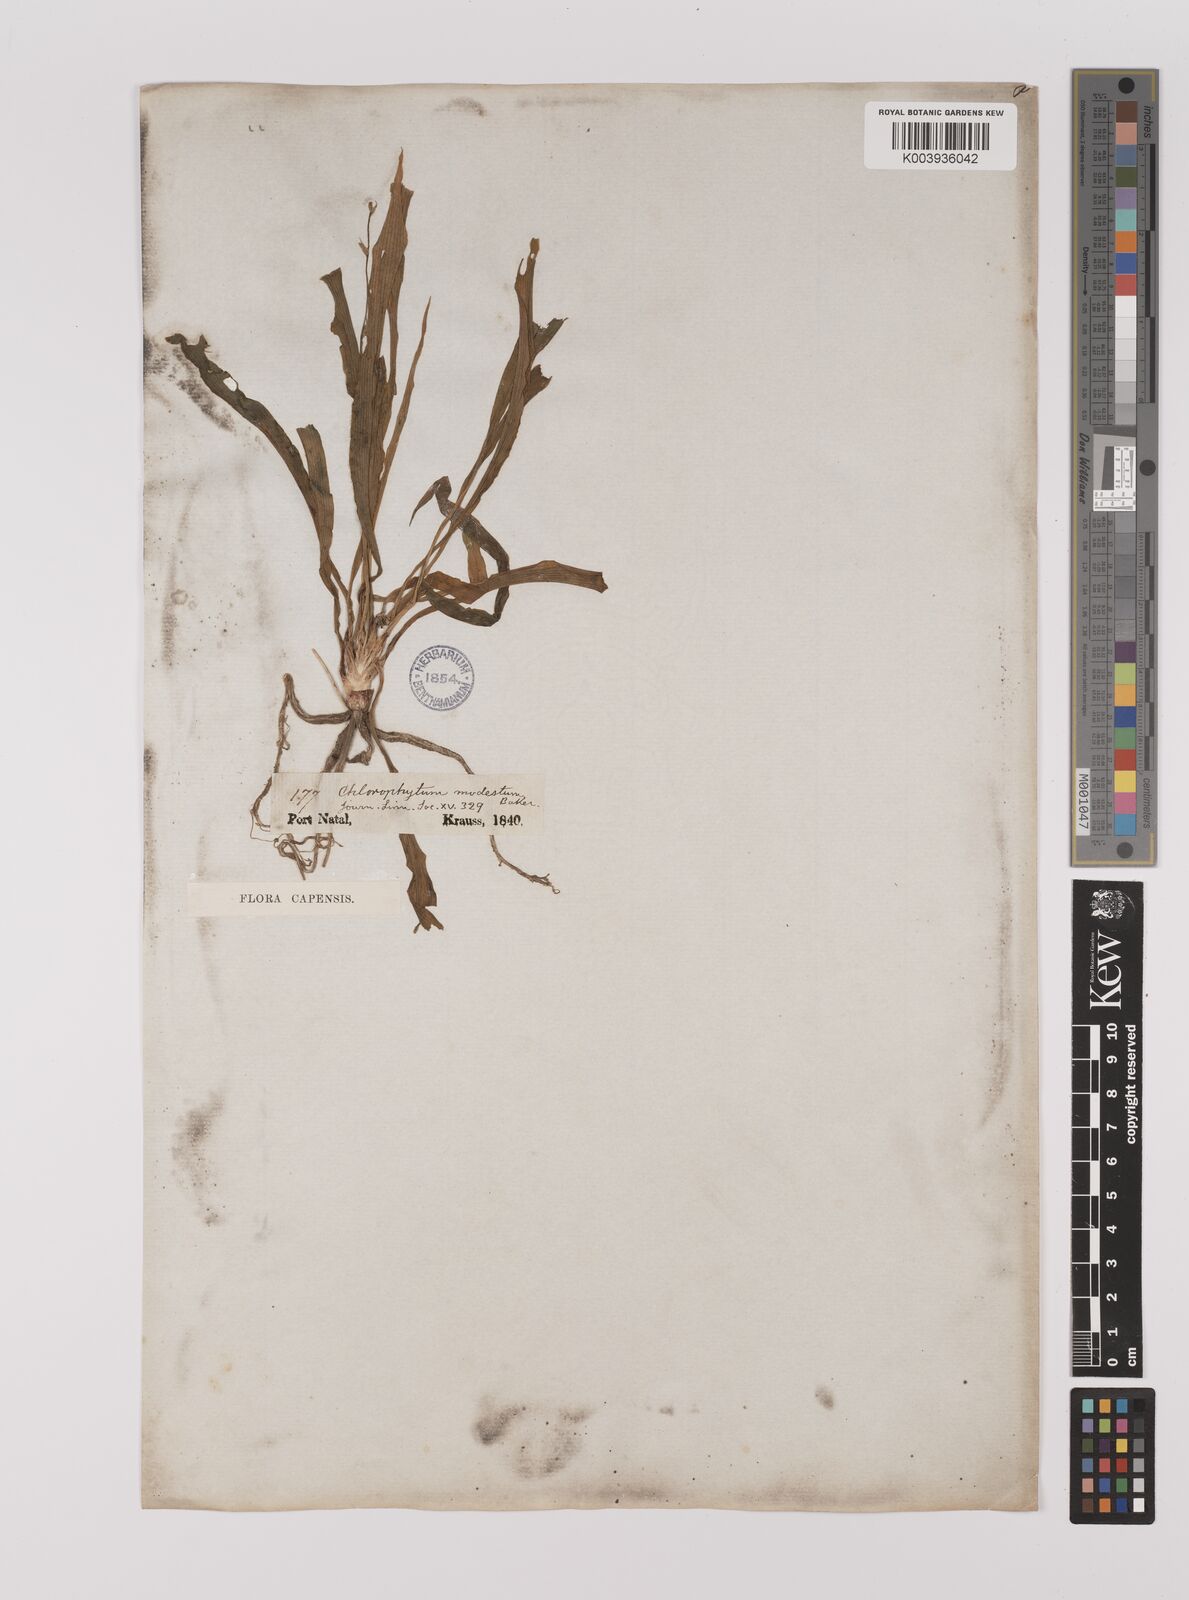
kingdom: Plantae
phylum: Tracheophyta
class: Liliopsida
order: Asparagales
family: Asparagaceae
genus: Chlorophytum
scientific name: Chlorophytum modestum
